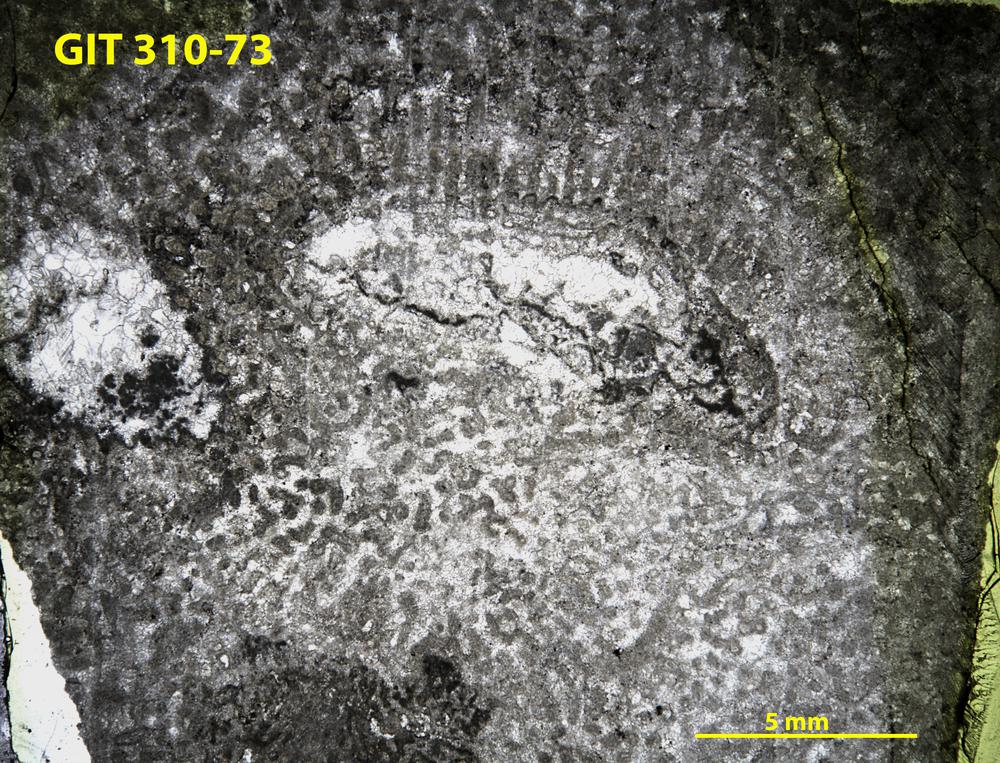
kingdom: Animalia
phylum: Porifera
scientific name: Porifera
